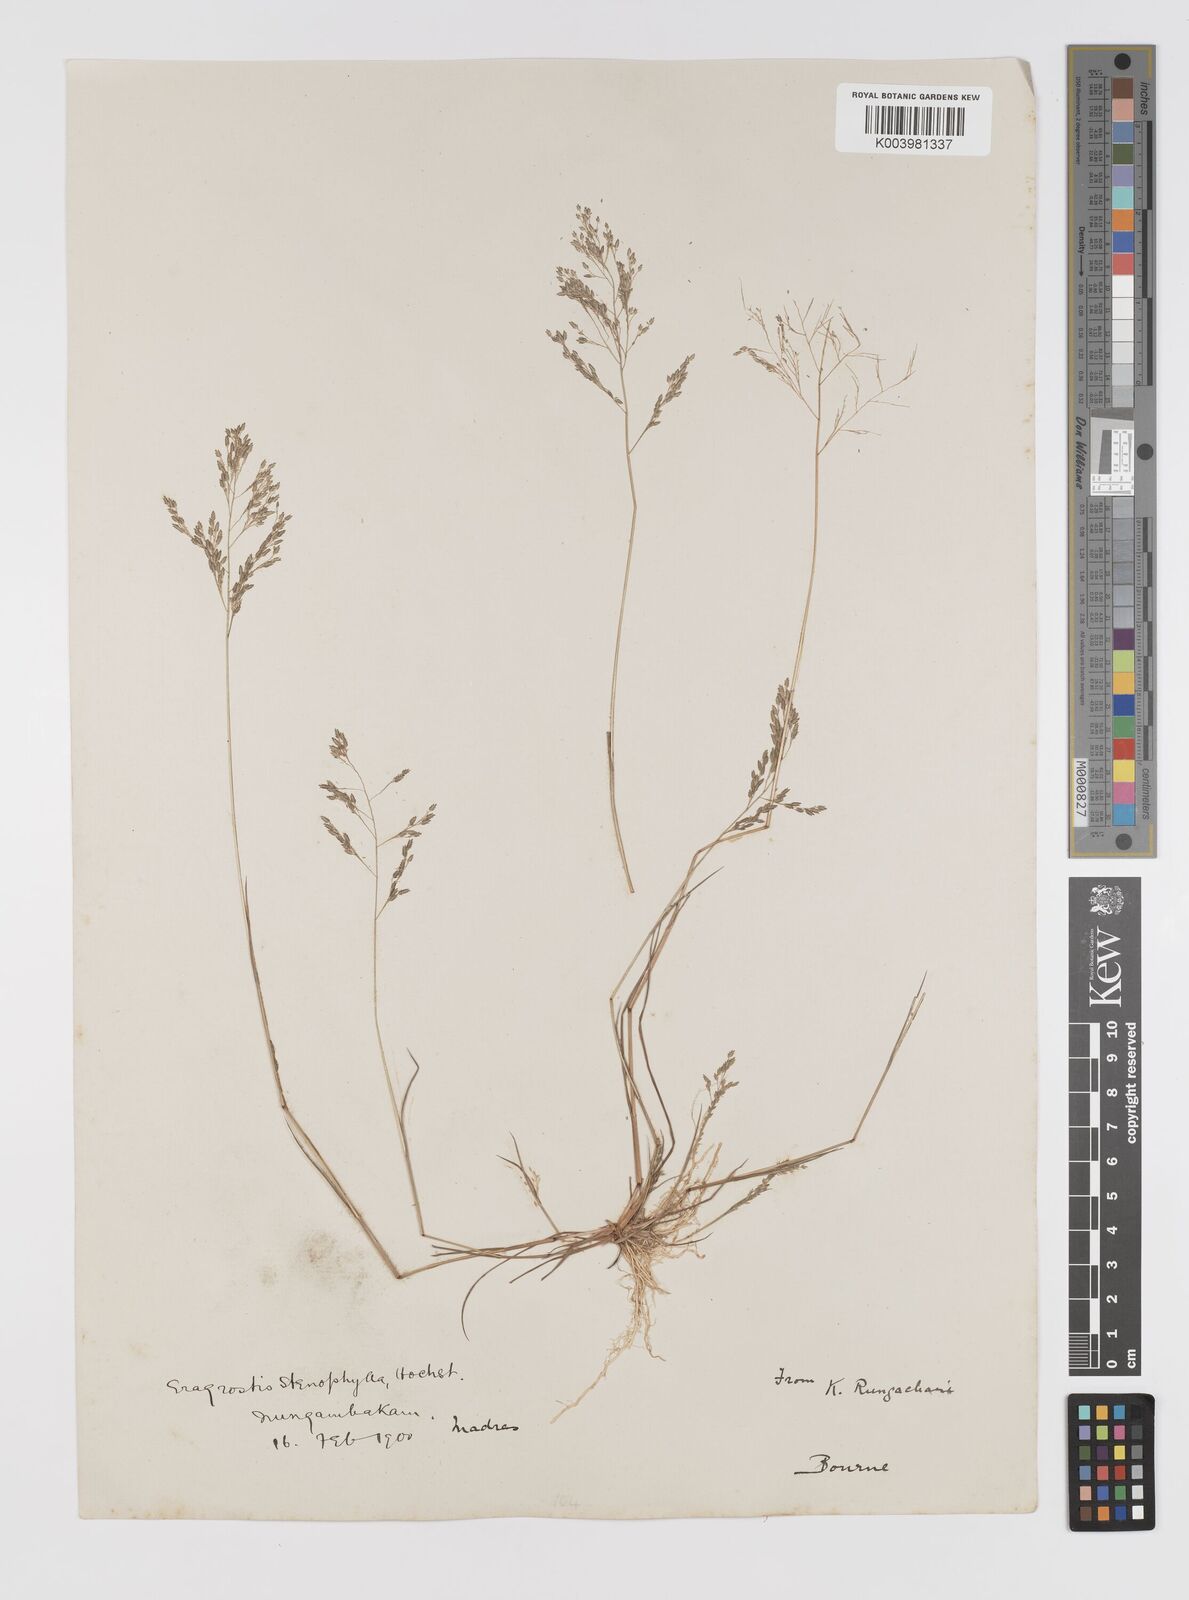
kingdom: Plantae
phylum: Tracheophyta
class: Liliopsida
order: Poales
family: Poaceae
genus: Eragrostis
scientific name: Eragrostis gangetica
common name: Slimflower lovegrass
